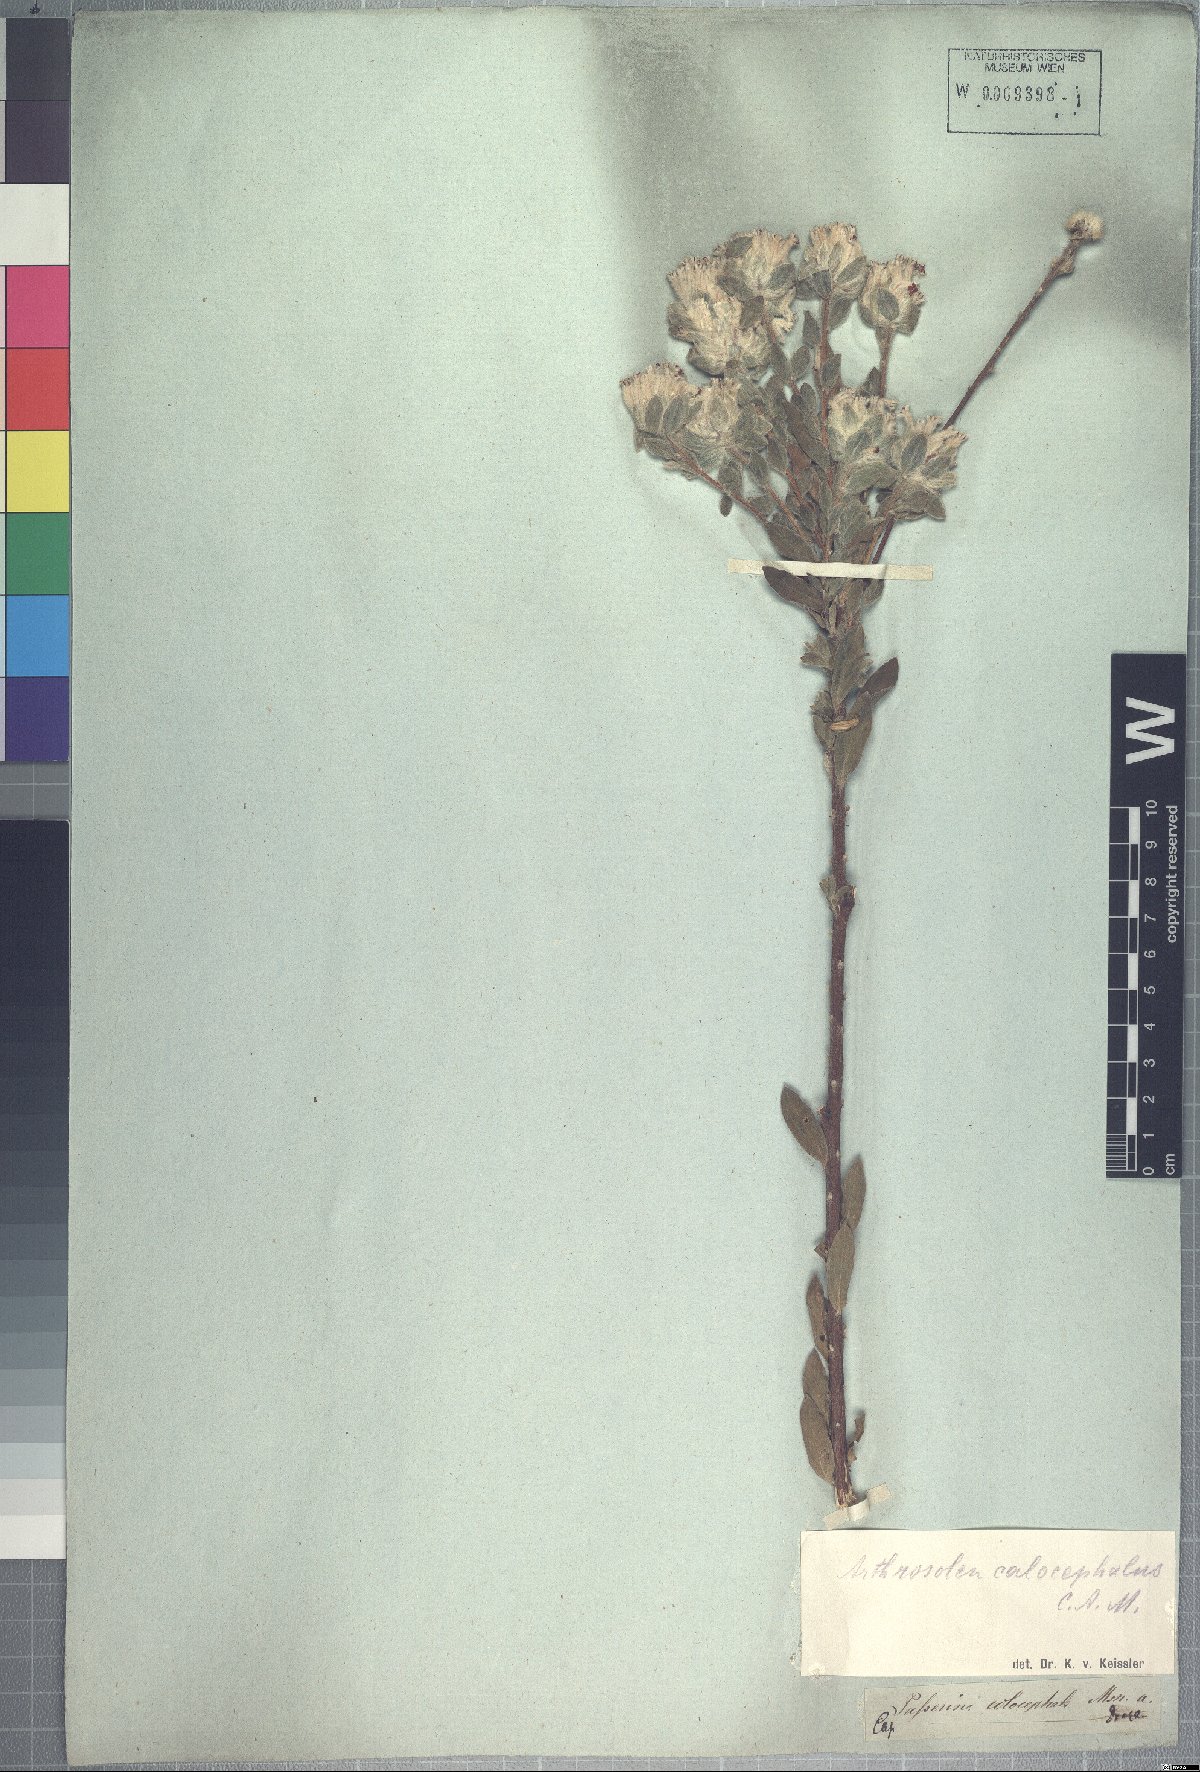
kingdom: Plantae
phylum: Tracheophyta
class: Magnoliopsida
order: Malvales
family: Thymelaeaceae
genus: Gnidia
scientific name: Gnidia calocephala
